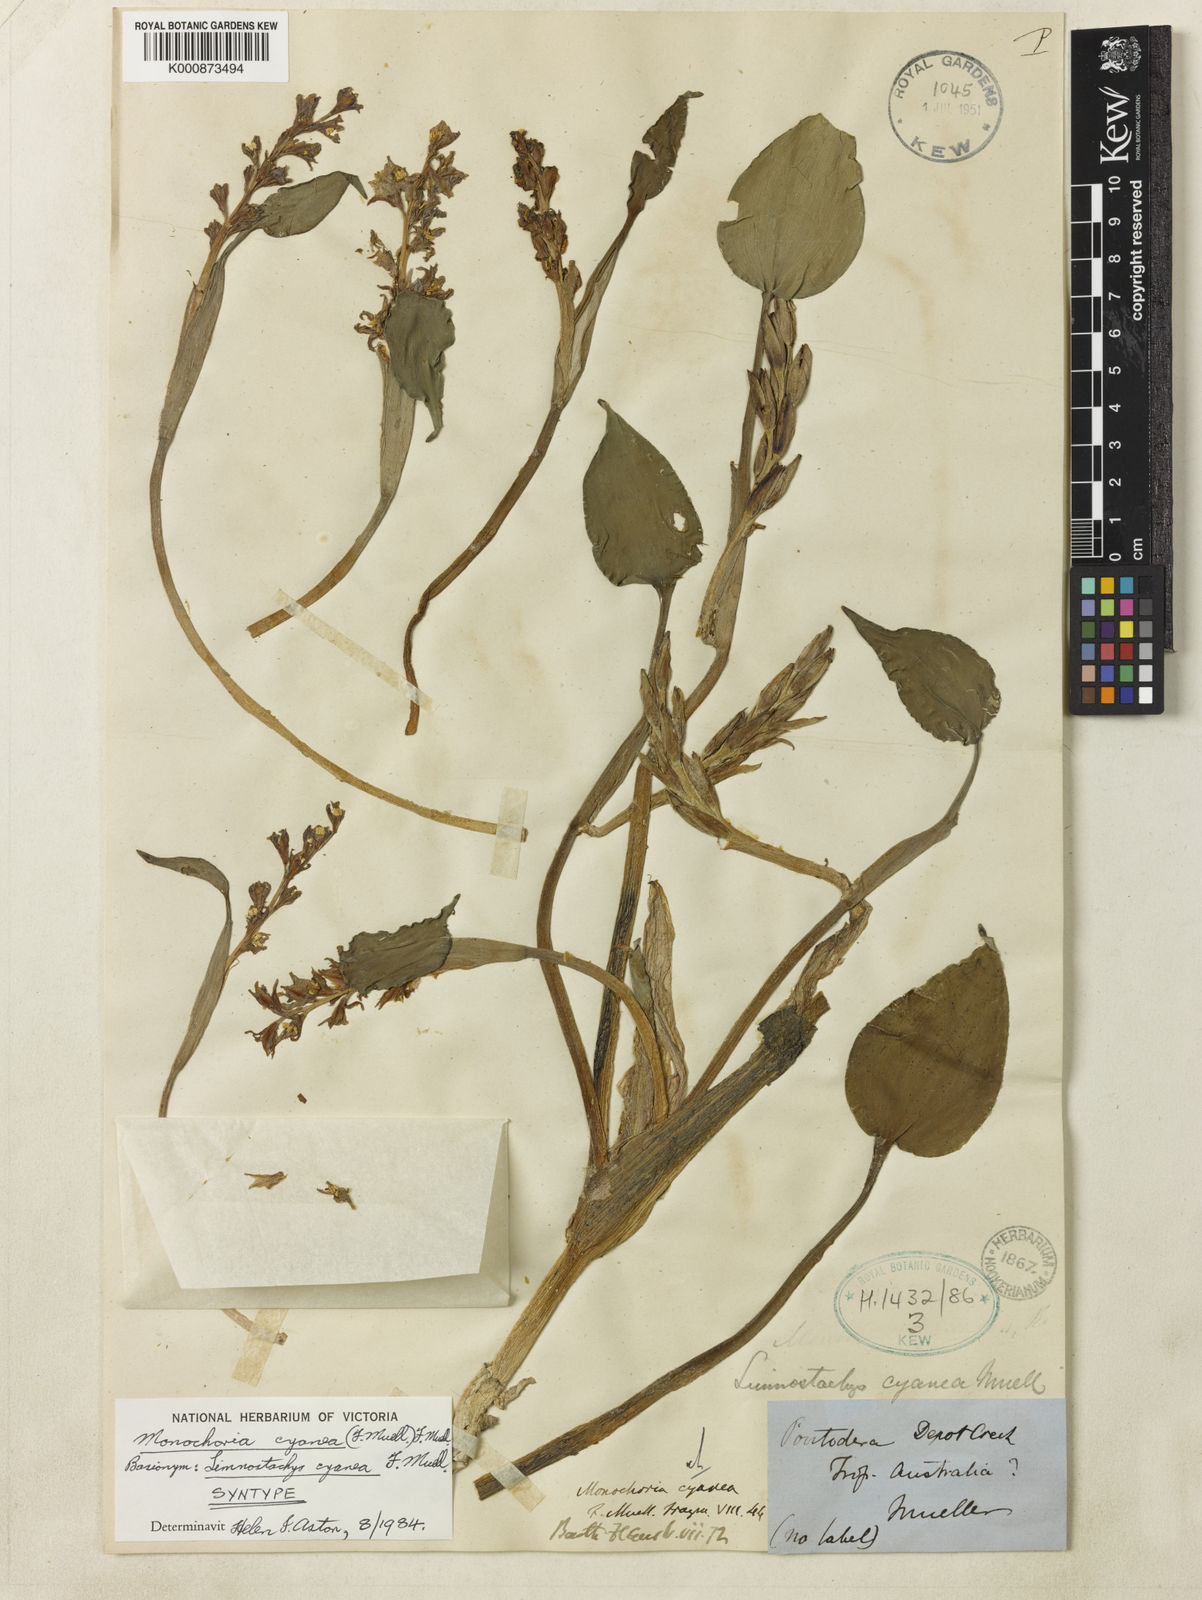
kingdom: Plantae
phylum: Tracheophyta
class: Liliopsida
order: Commelinales
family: Pontederiaceae
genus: Pontederia
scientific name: Pontederia cyanea
